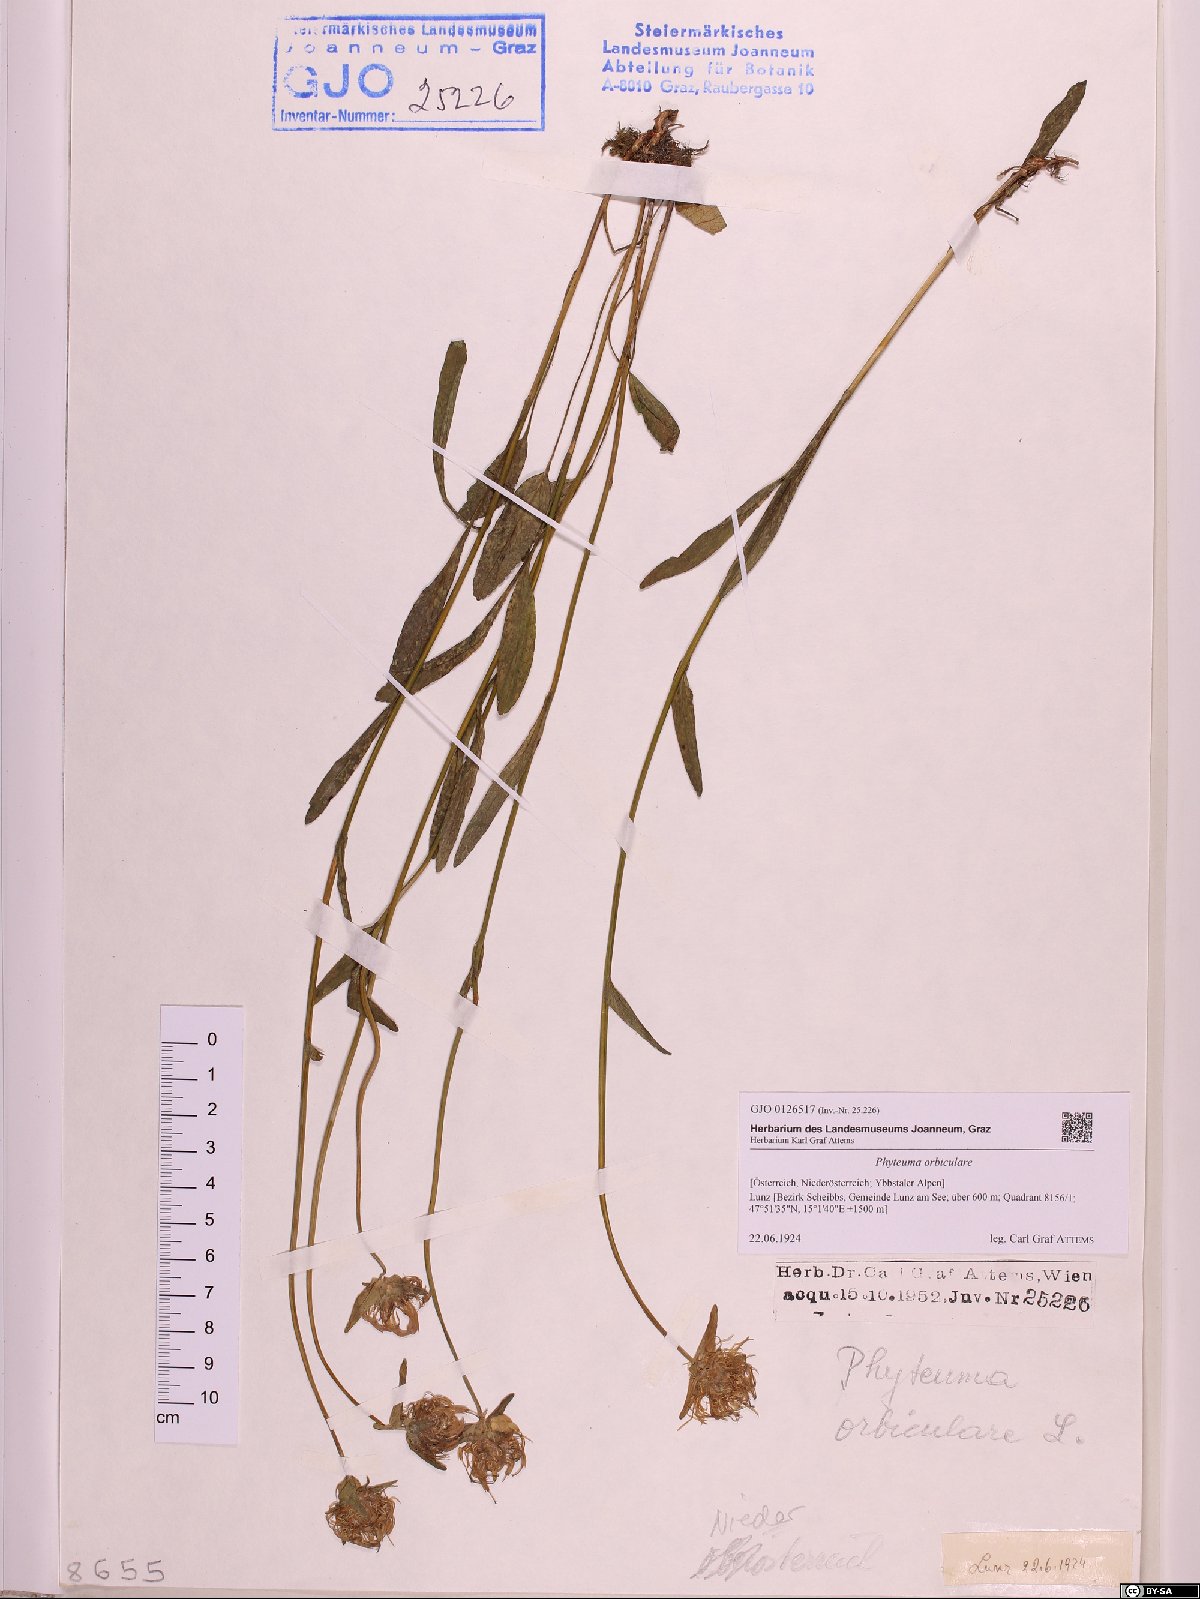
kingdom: Plantae
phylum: Tracheophyta
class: Magnoliopsida
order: Asterales
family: Campanulaceae
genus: Phyteuma
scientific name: Phyteuma orbiculare
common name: Round-headed rampion
